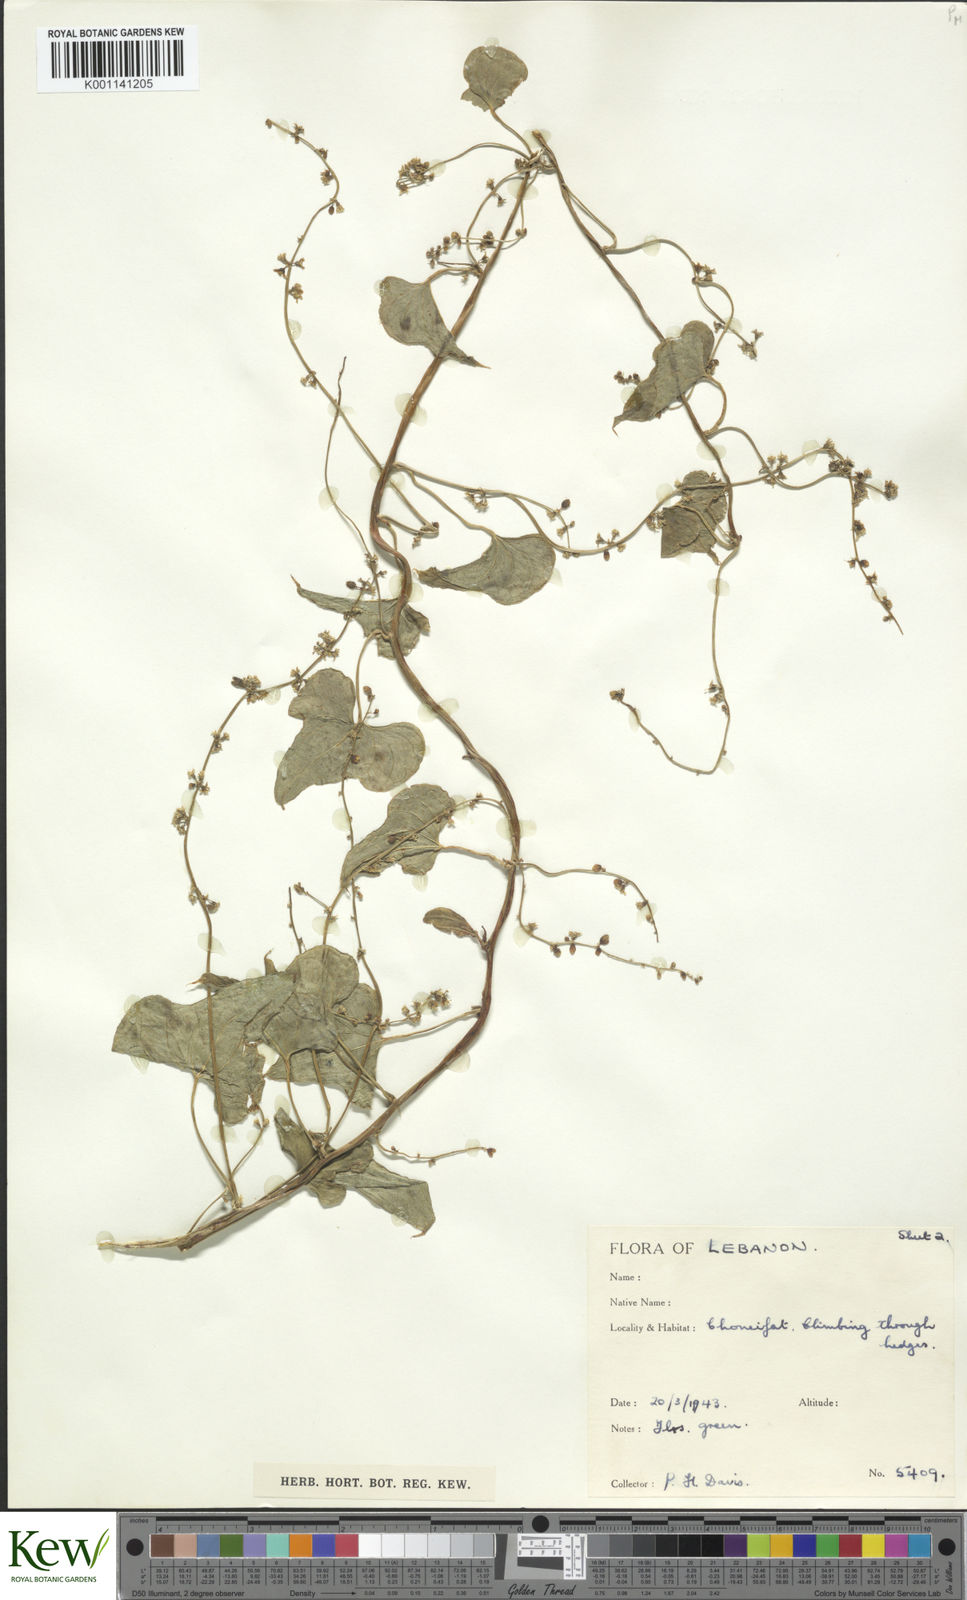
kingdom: Plantae
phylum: Tracheophyta
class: Liliopsida
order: Dioscoreales
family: Dioscoreaceae
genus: Dioscorea
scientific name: Dioscorea communis
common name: Black-bindweed
